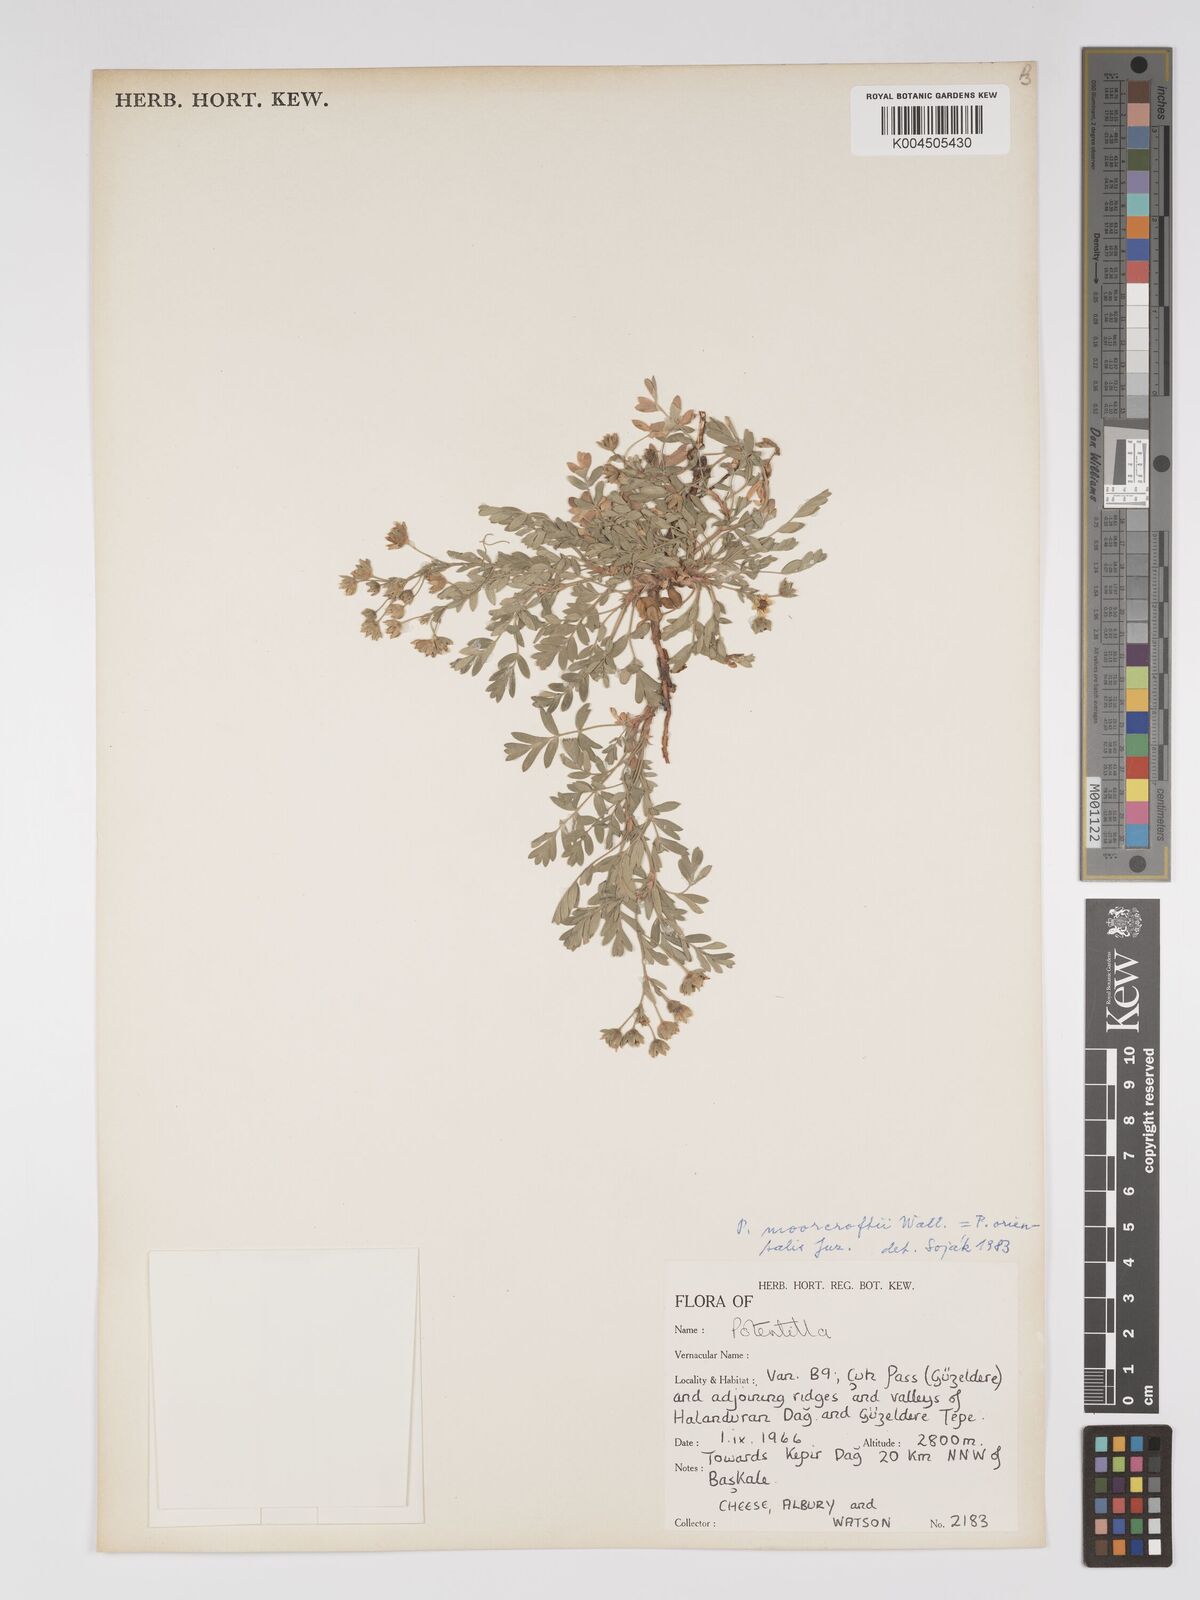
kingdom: Plantae
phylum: Tracheophyta
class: Magnoliopsida
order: Rosales
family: Rosaceae
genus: Potentilla
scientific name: Potentilla
